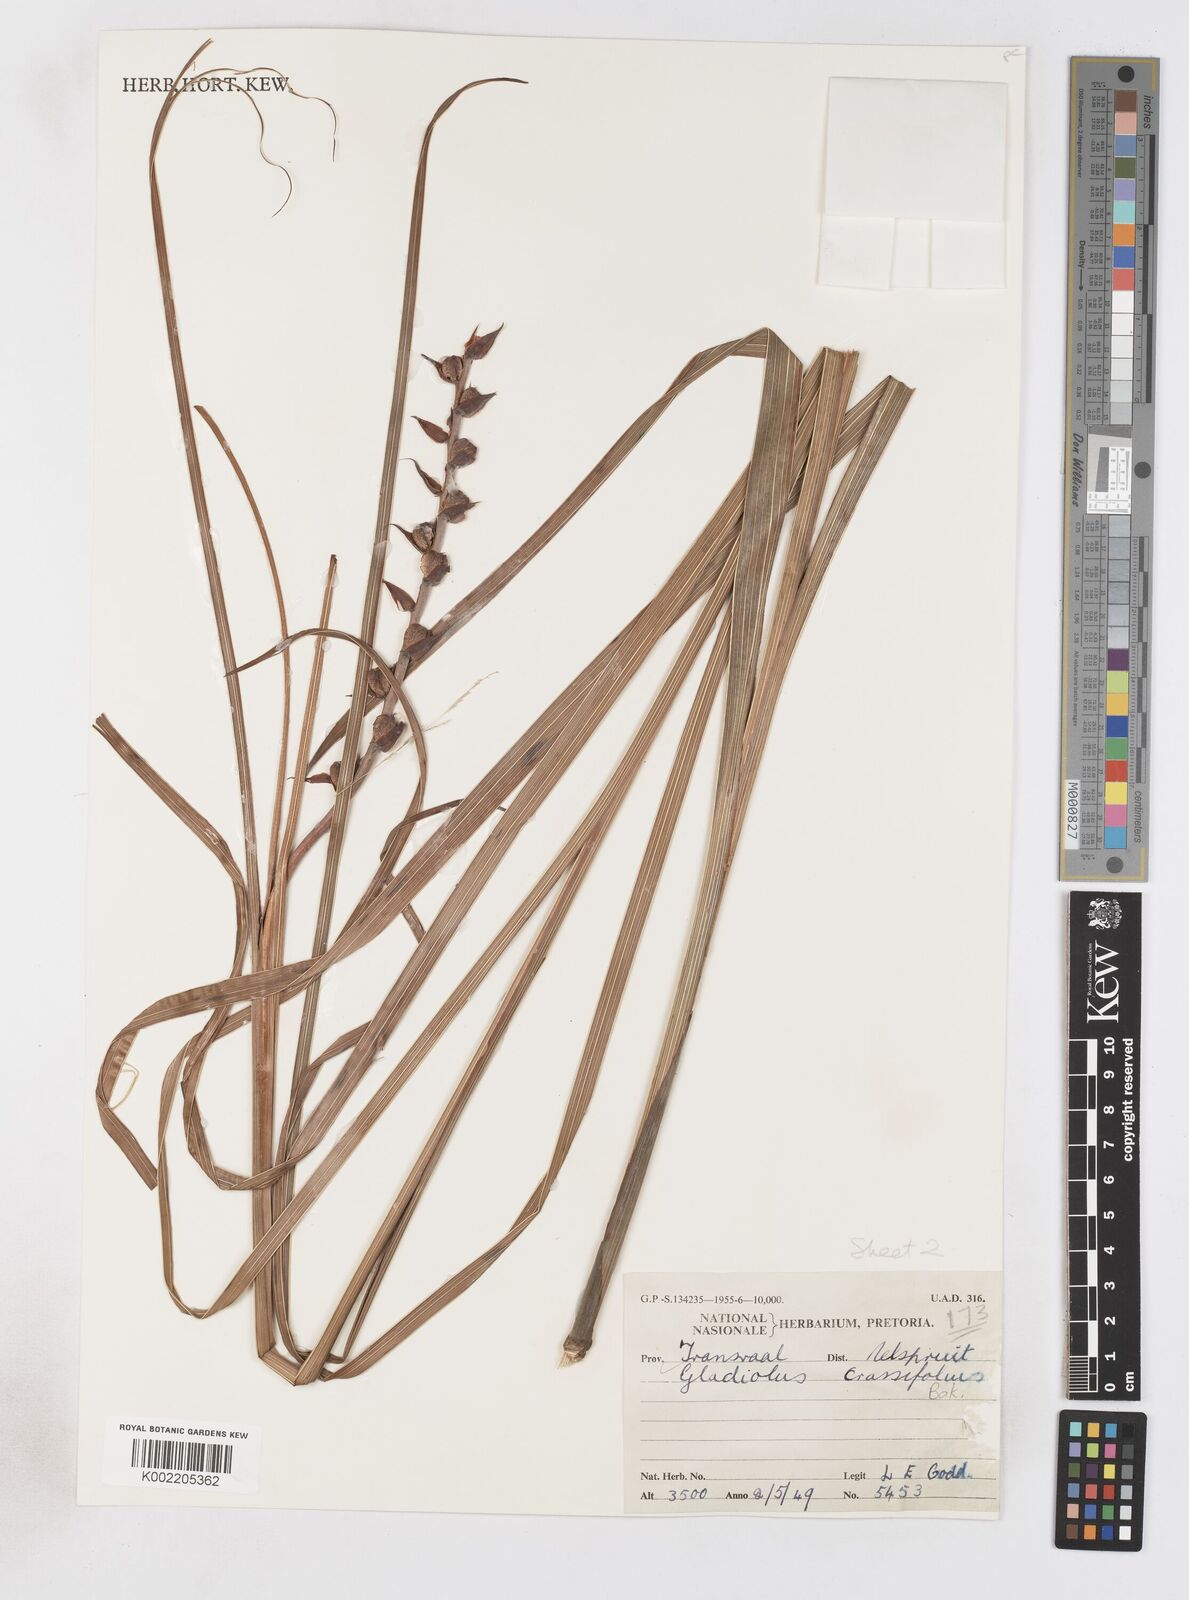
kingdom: Plantae
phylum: Tracheophyta
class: Liliopsida
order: Asparagales
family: Iridaceae
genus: Gladiolus
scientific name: Gladiolus crassifolius
